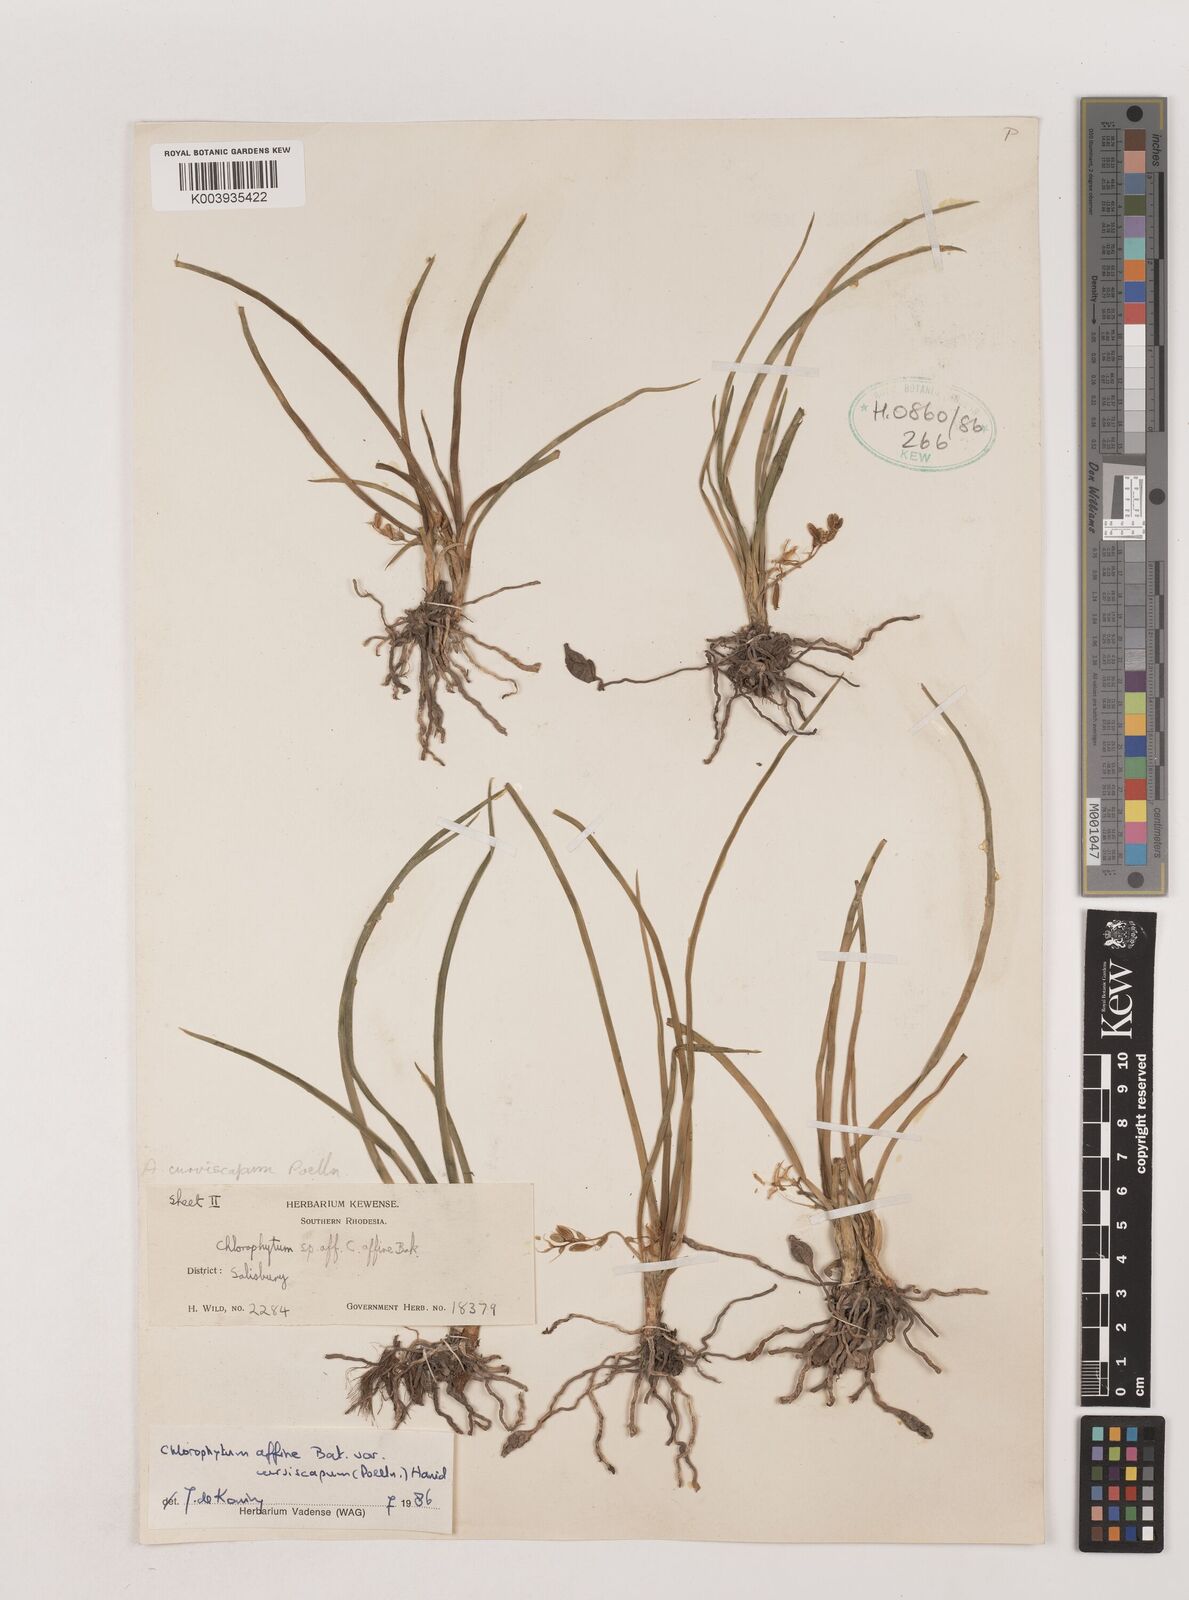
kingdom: Plantae
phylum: Tracheophyta
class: Liliopsida
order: Asparagales
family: Asparagaceae
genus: Chlorophytum
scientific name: Chlorophytum tordense
